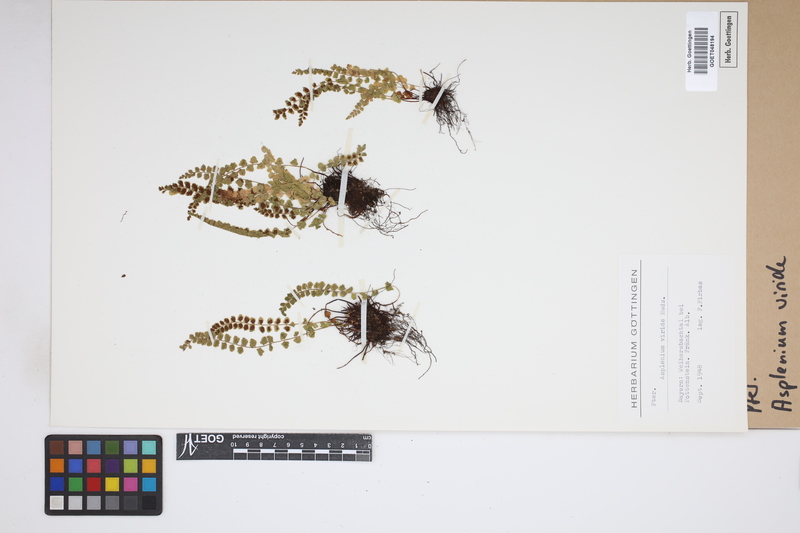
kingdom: Plantae
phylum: Tracheophyta
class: Polypodiopsida
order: Polypodiales
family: Aspleniaceae
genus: Asplenium
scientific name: Asplenium viride
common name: Green spleenwort
